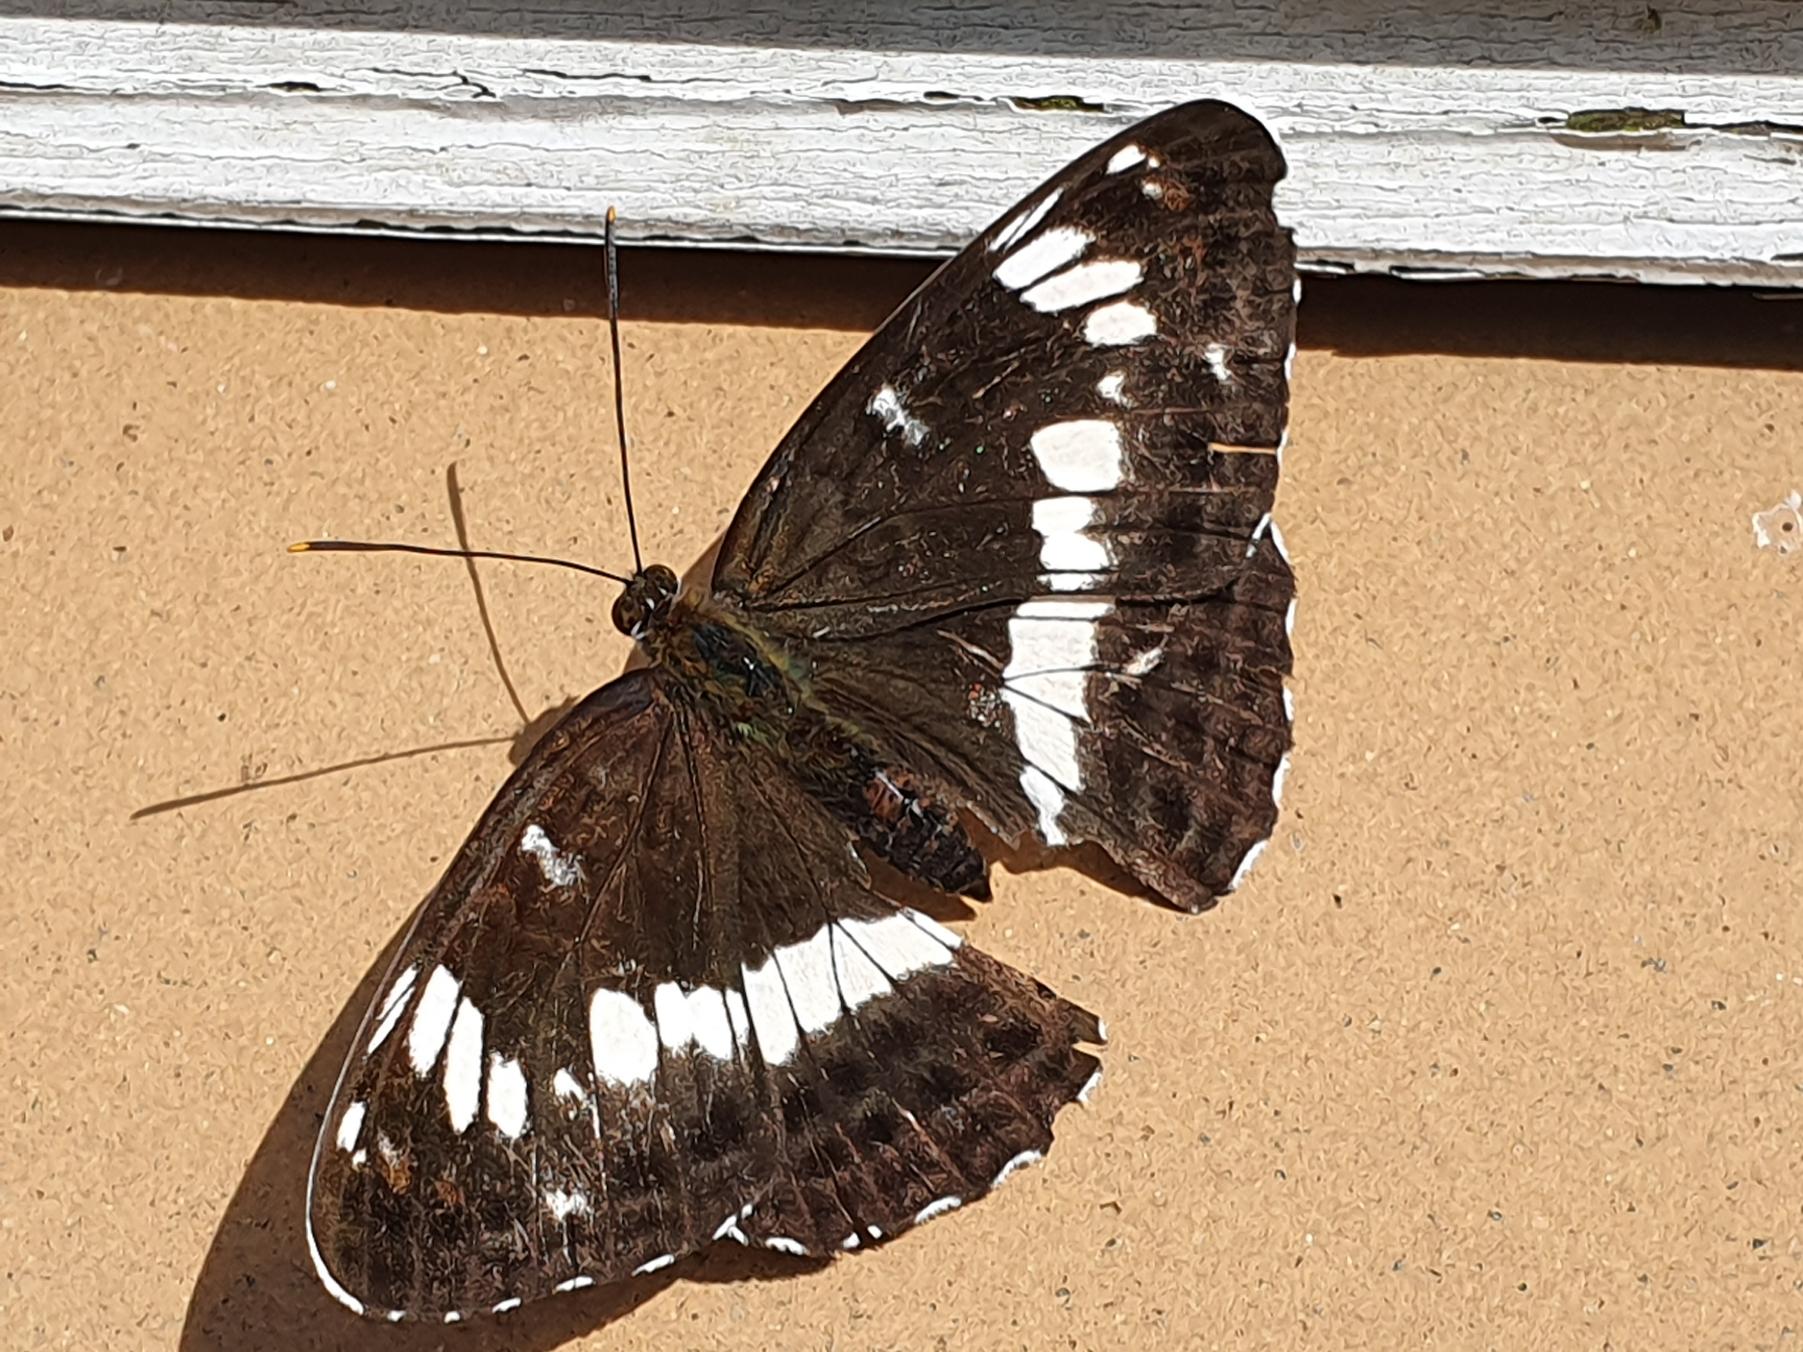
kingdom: Animalia
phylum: Arthropoda
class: Insecta
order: Lepidoptera
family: Nymphalidae
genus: Ladoga
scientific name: Ladoga camilla
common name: Hvid admiral
